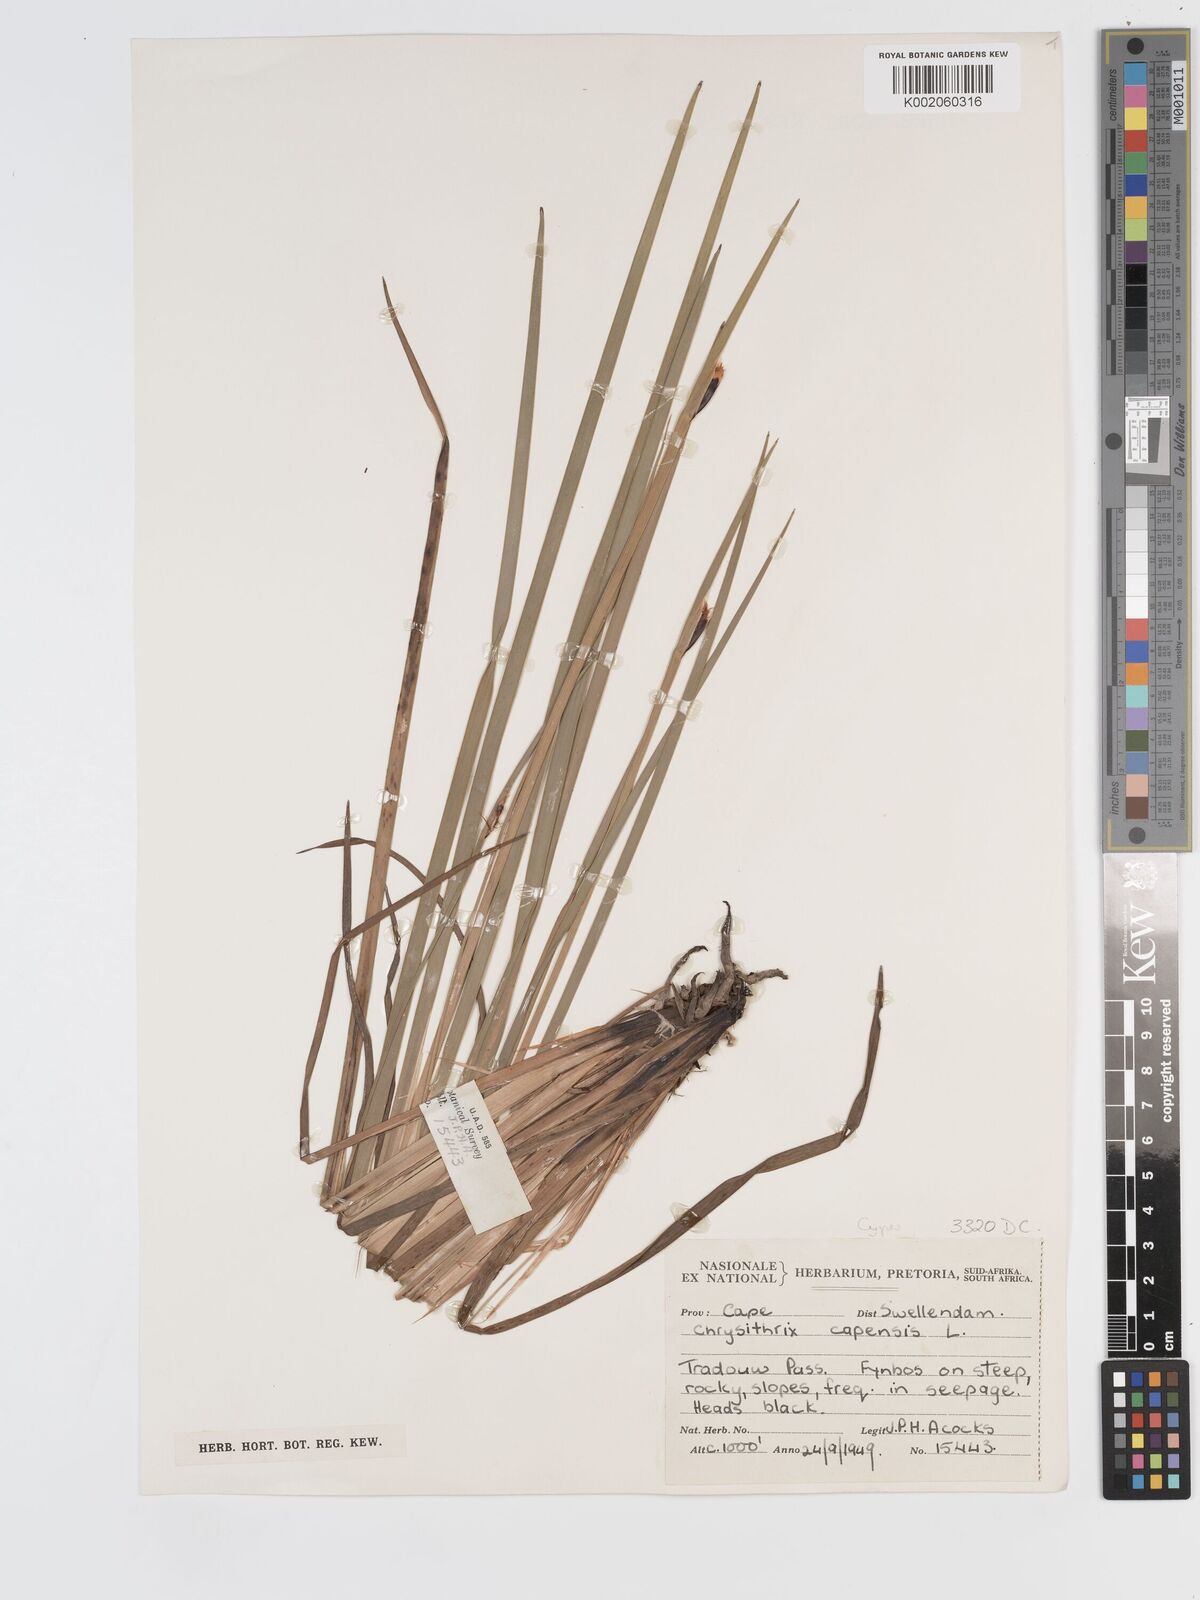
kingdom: Plantae
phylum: Tracheophyta
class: Liliopsida
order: Poales
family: Cyperaceae
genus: Chrysitrix
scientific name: Chrysitrix capensis
